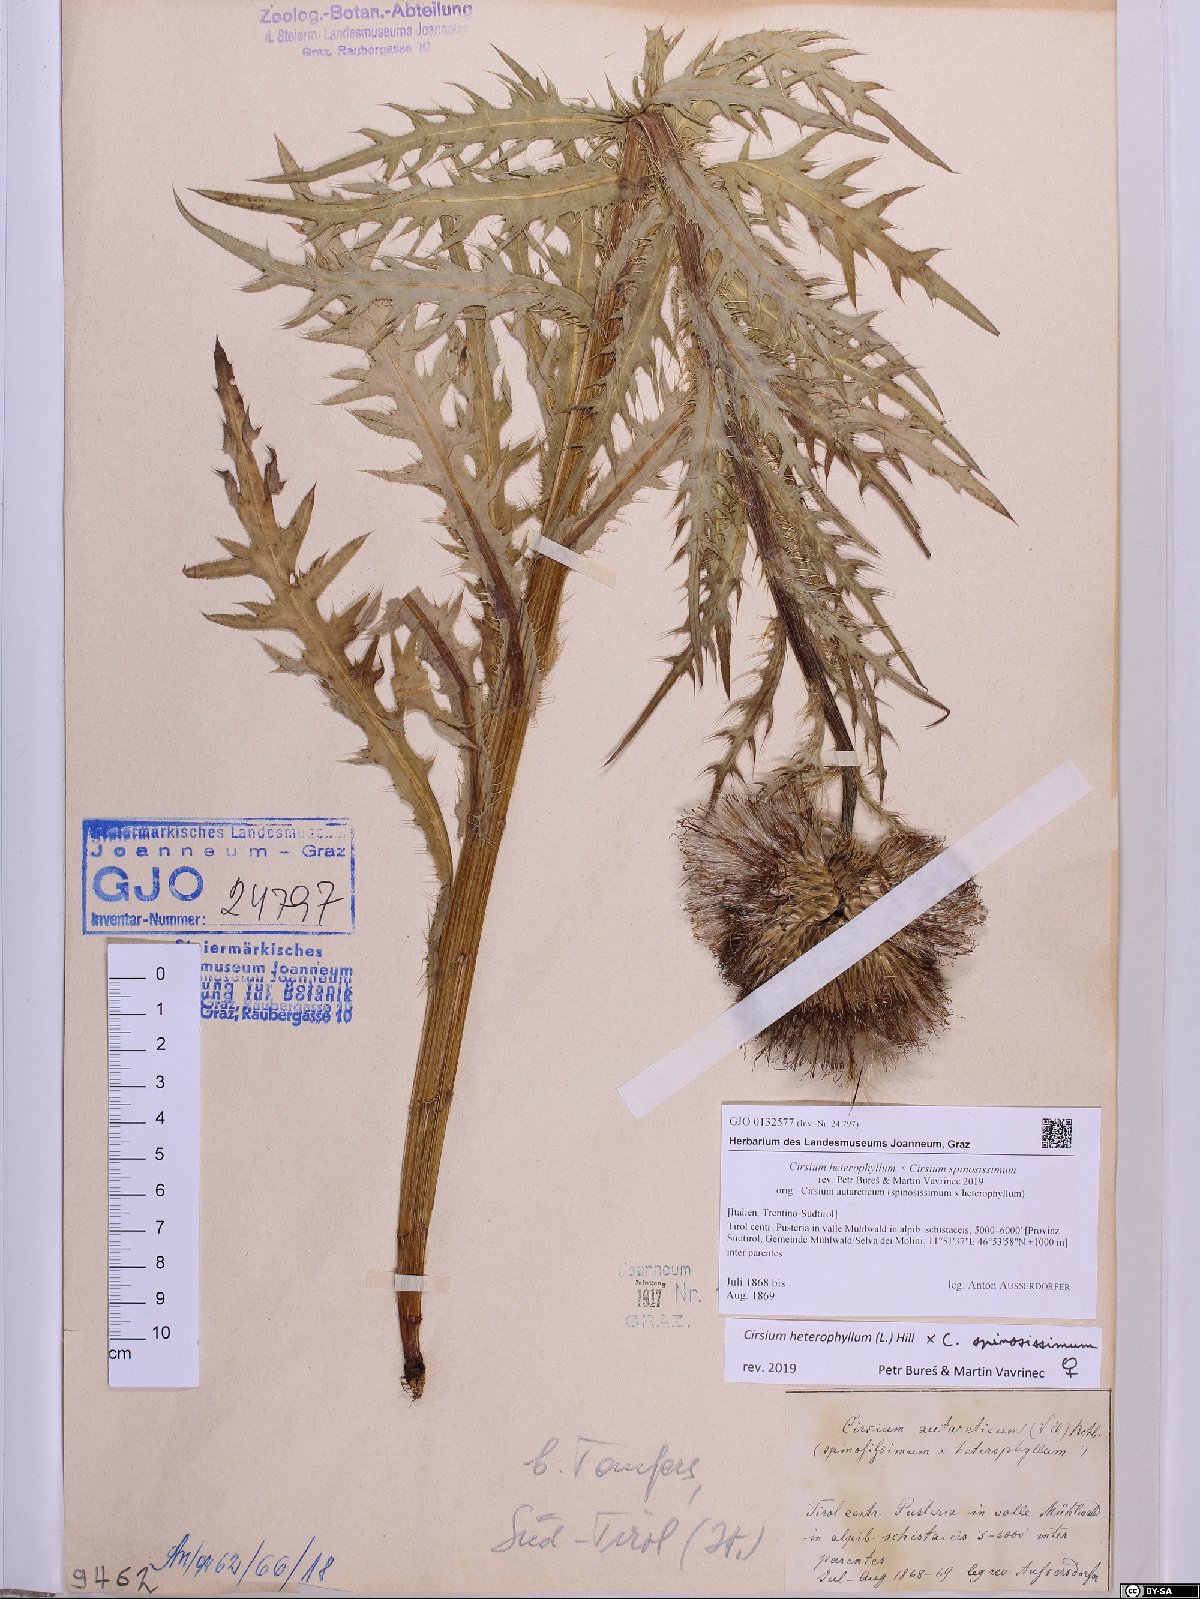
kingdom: Plantae
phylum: Tracheophyta
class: Magnoliopsida
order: Asterales
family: Asteraceae
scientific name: Asteraceae
